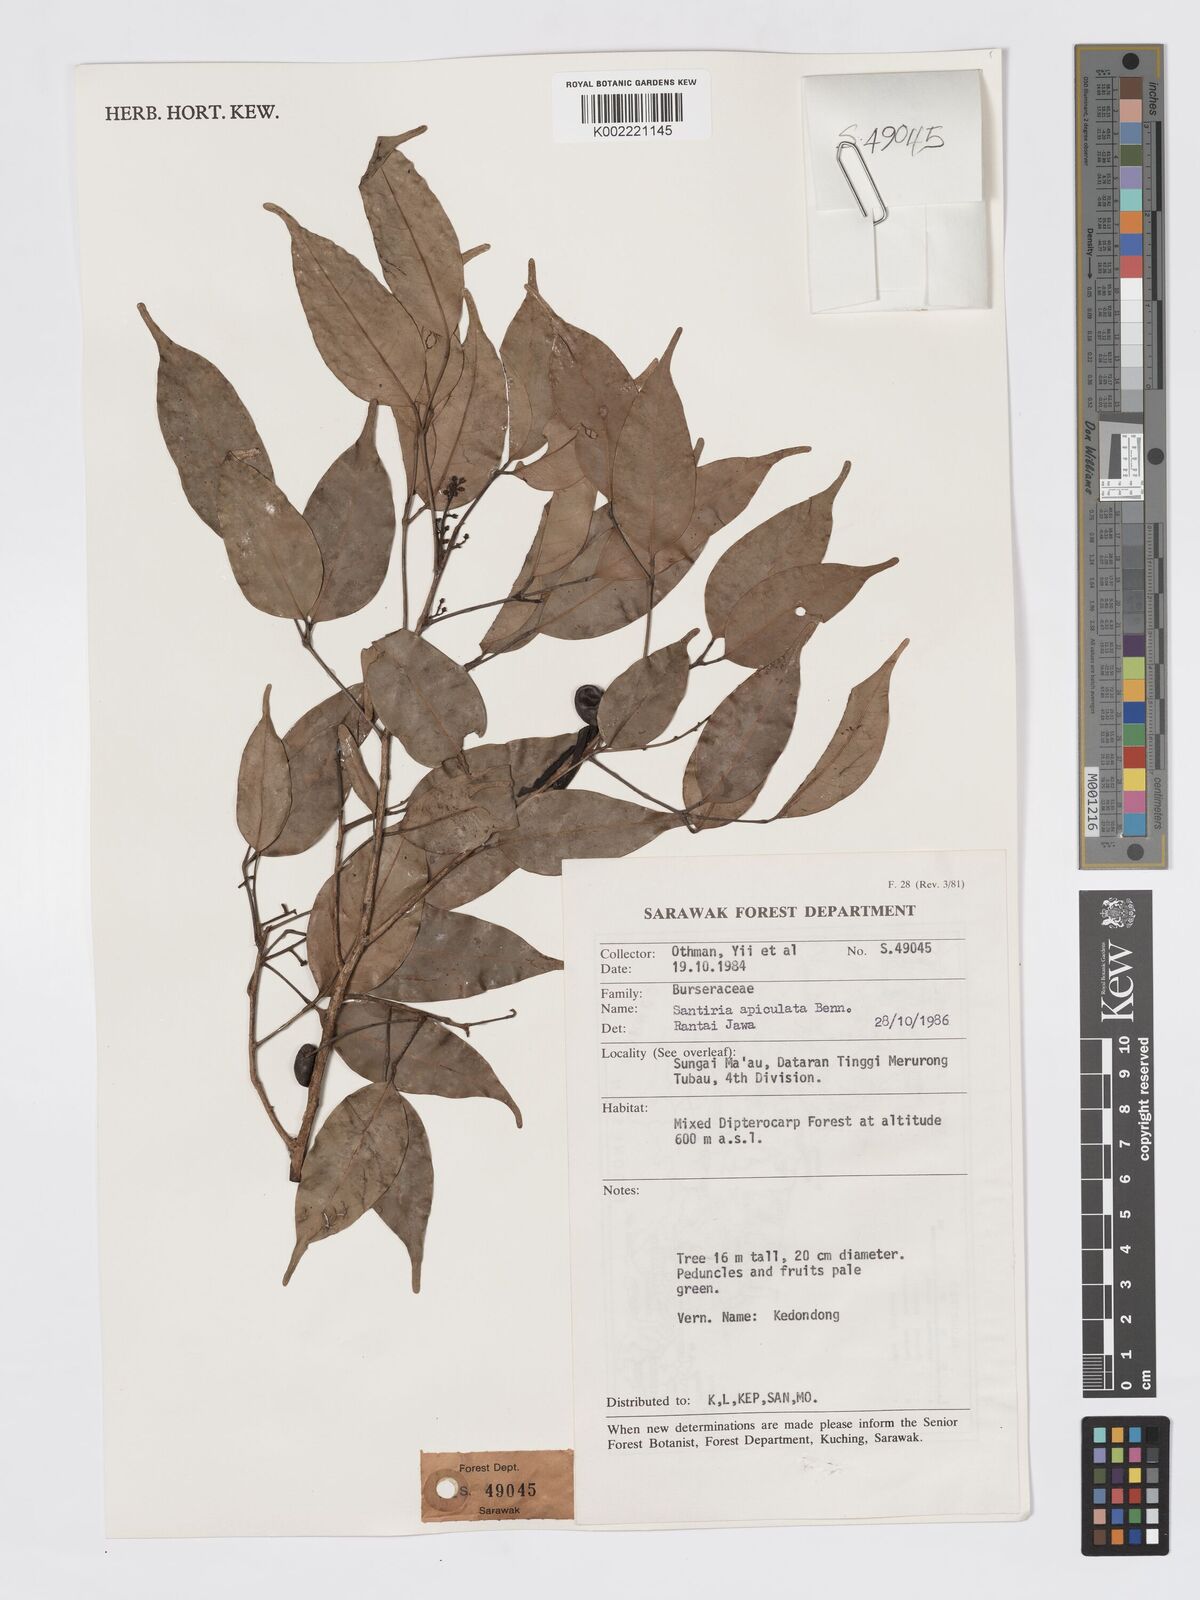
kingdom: Plantae
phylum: Tracheophyta
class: Magnoliopsida
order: Sapindales
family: Burseraceae
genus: Santiria
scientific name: Santiria apiculata
